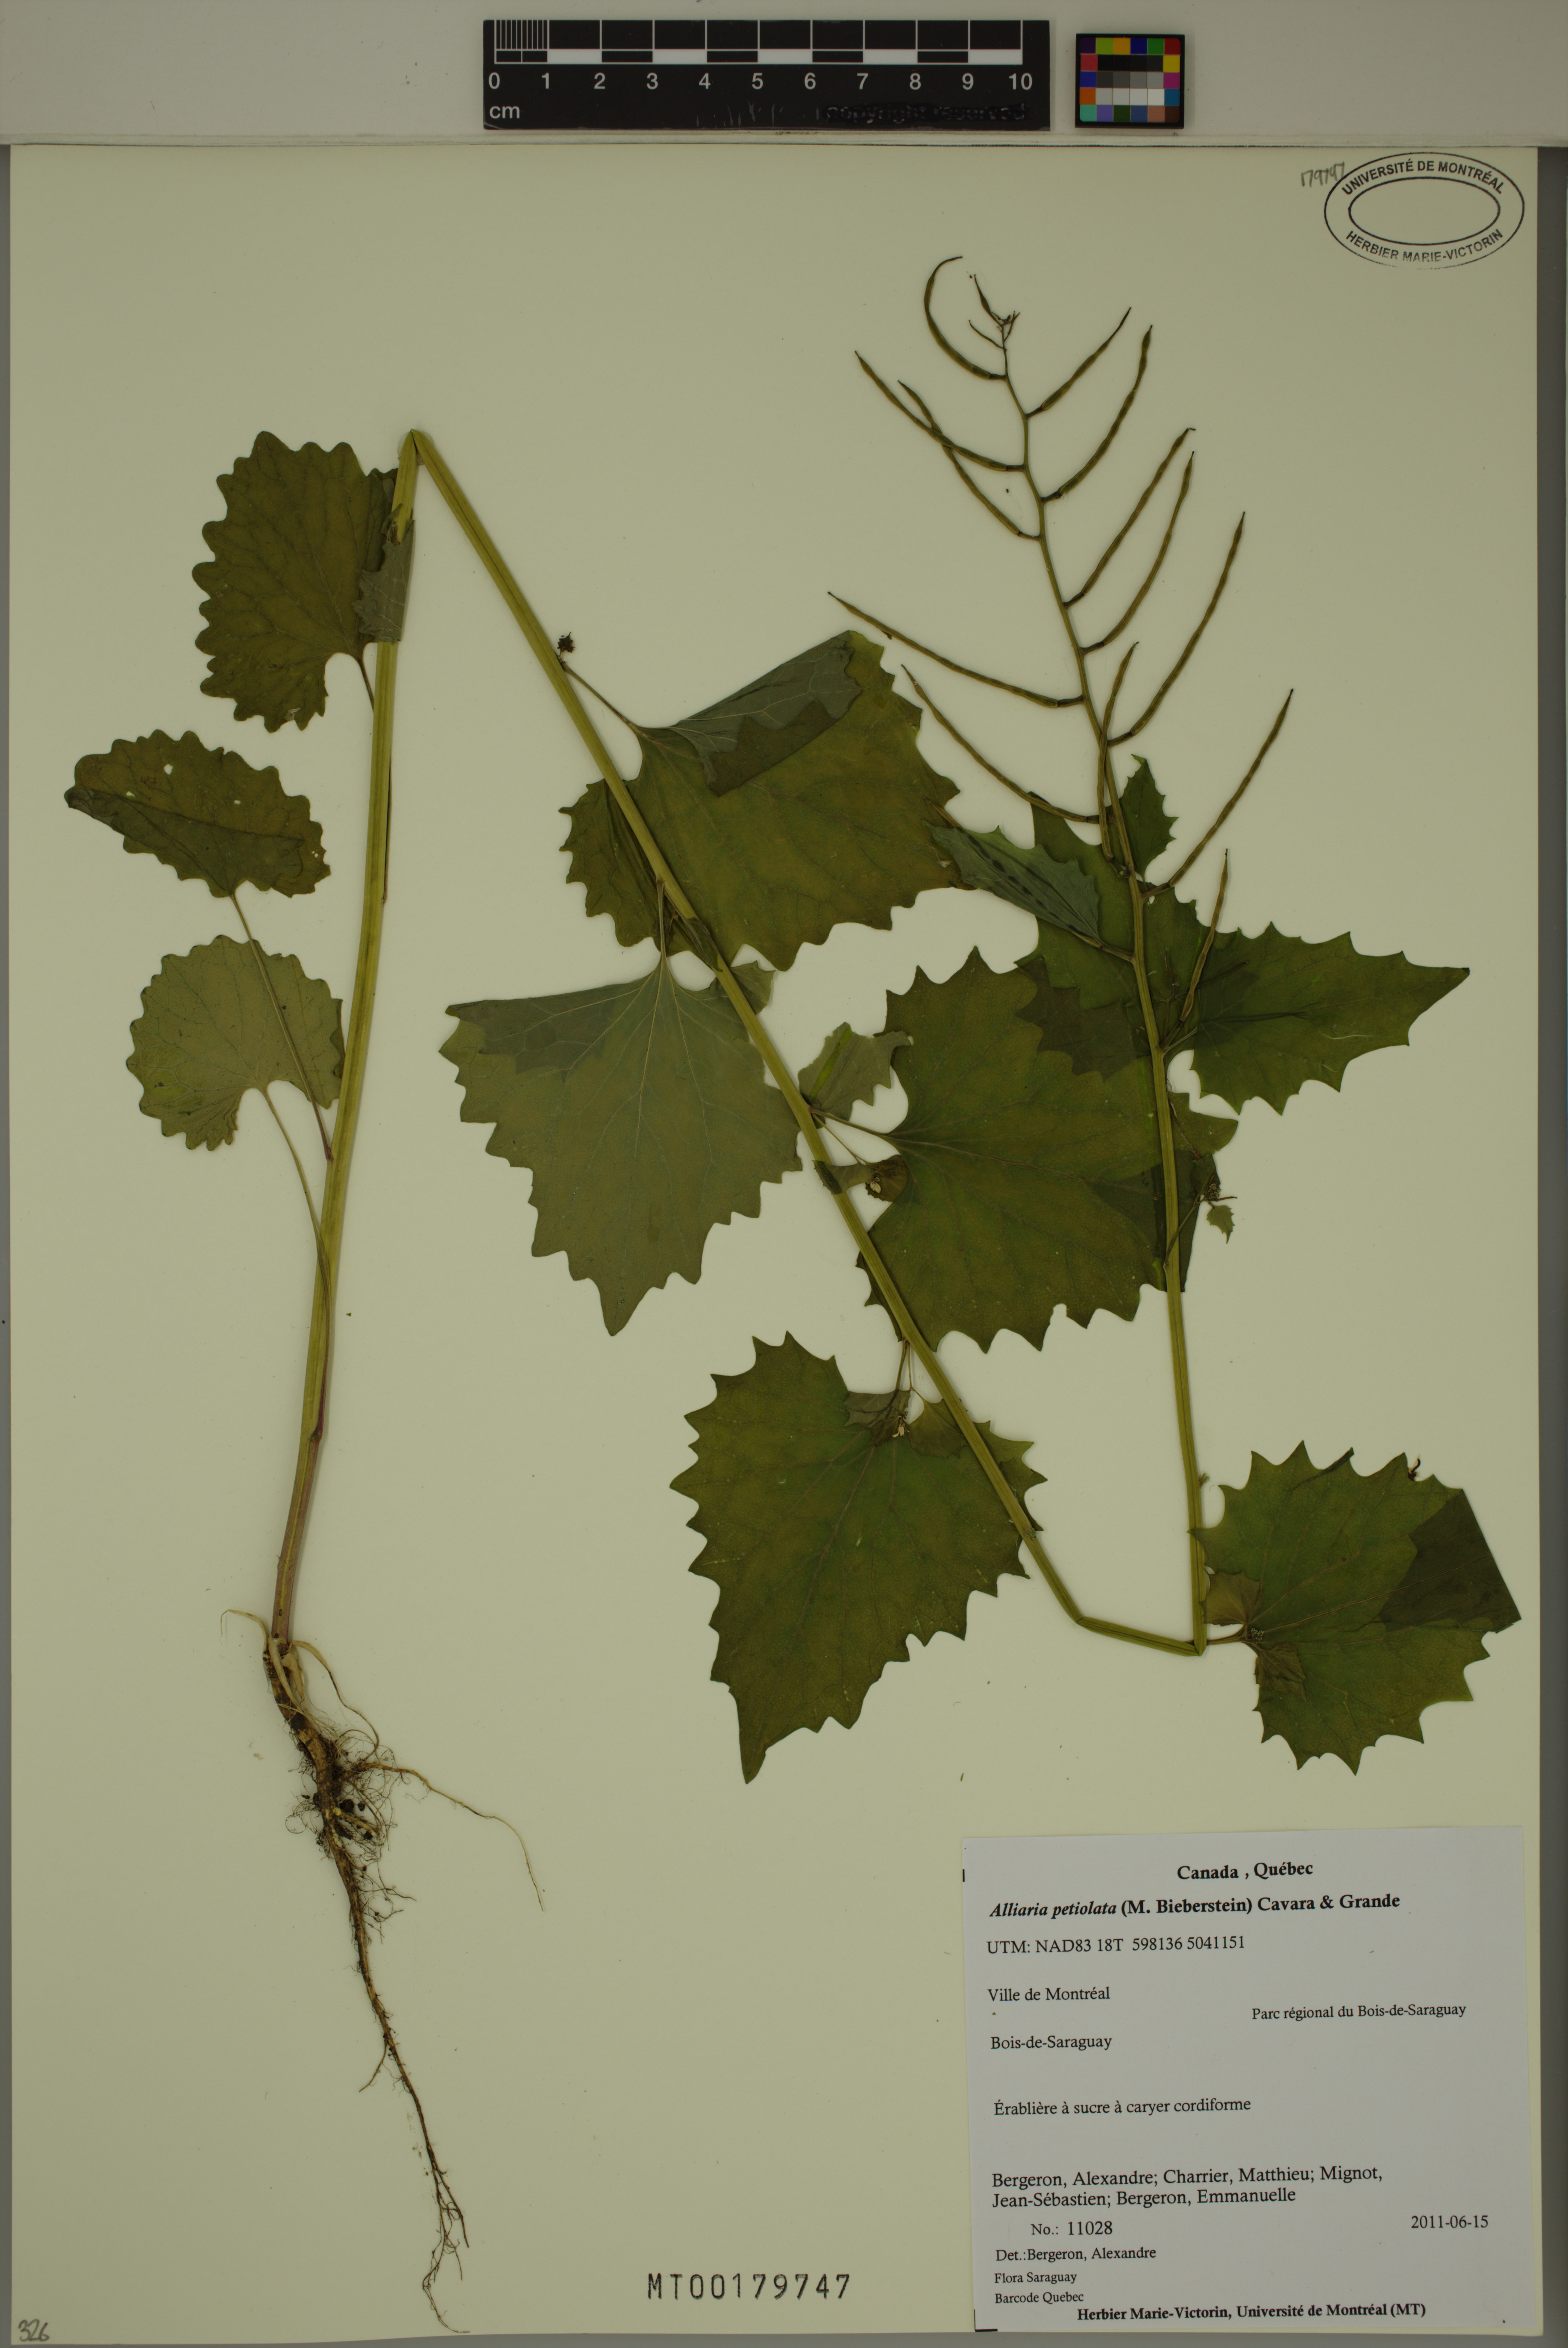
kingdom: Plantae
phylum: Tracheophyta
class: Magnoliopsida
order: Brassicales
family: Brassicaceae
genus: Alliaria
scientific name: Alliaria petiolata
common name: Garlic mustard
